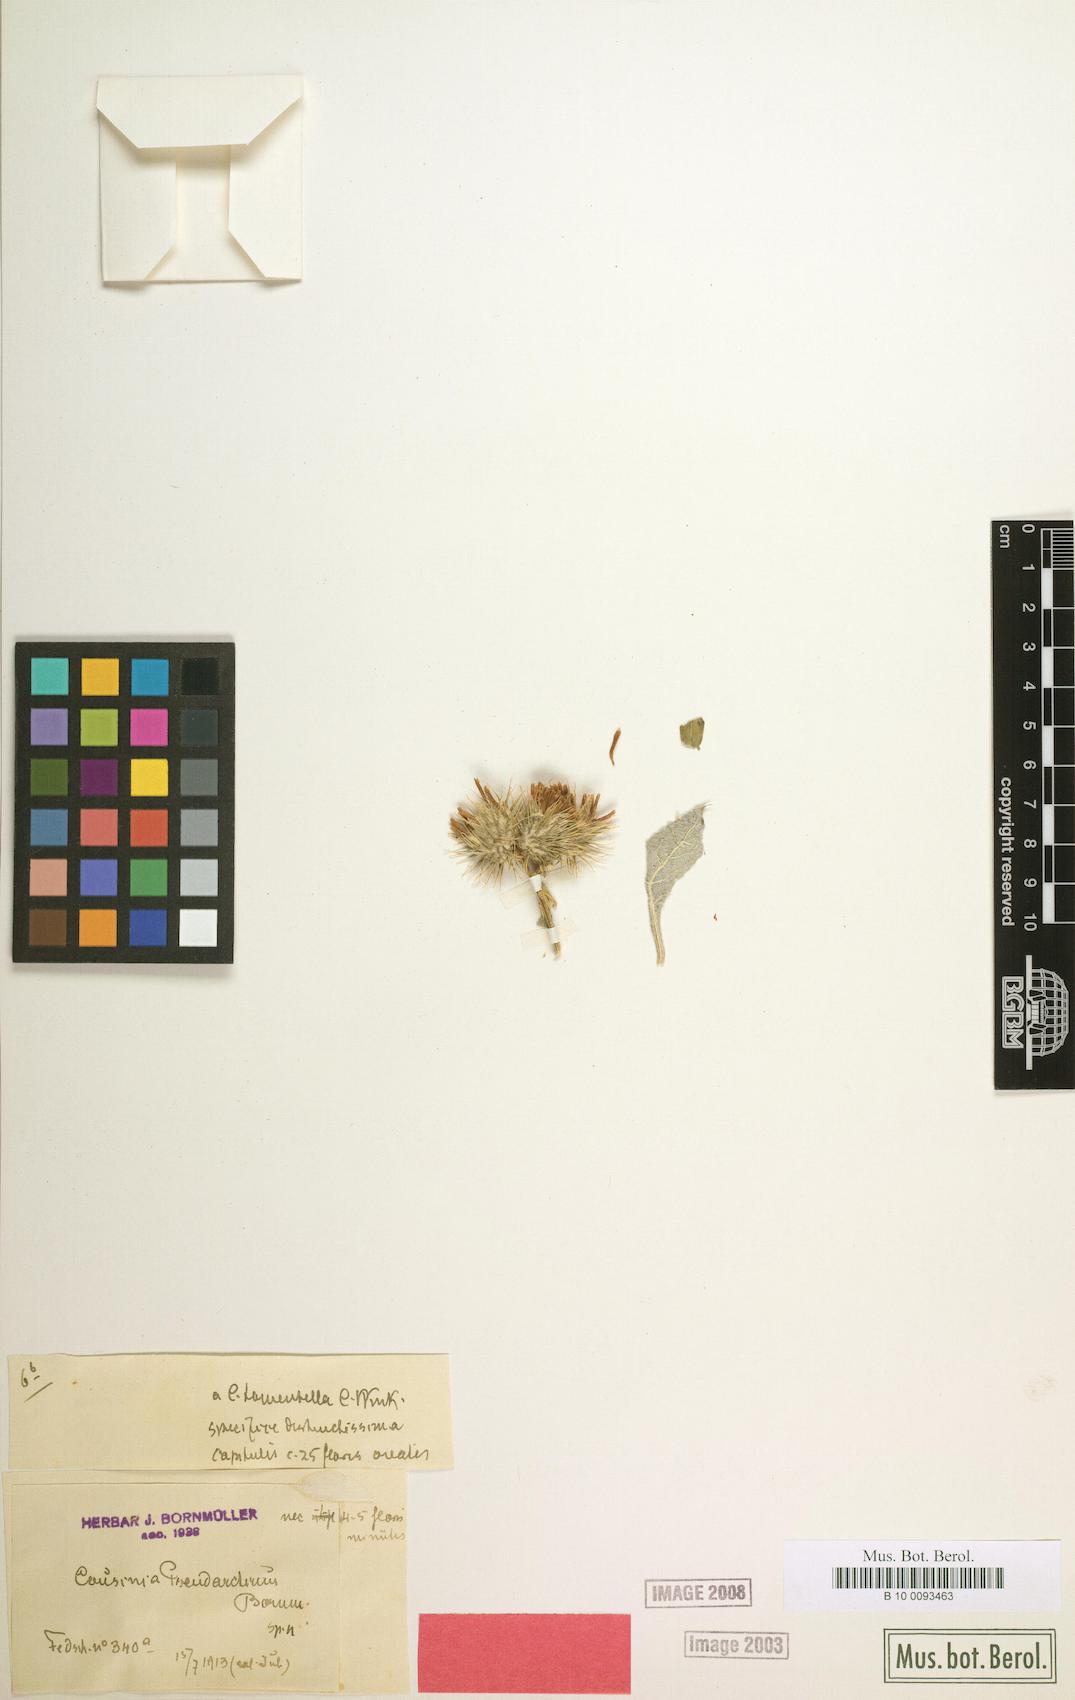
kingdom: Plantae
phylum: Tracheophyta
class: Magnoliopsida
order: Asterales
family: Asteraceae
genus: Arctium
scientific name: Arctium pseudarctium
